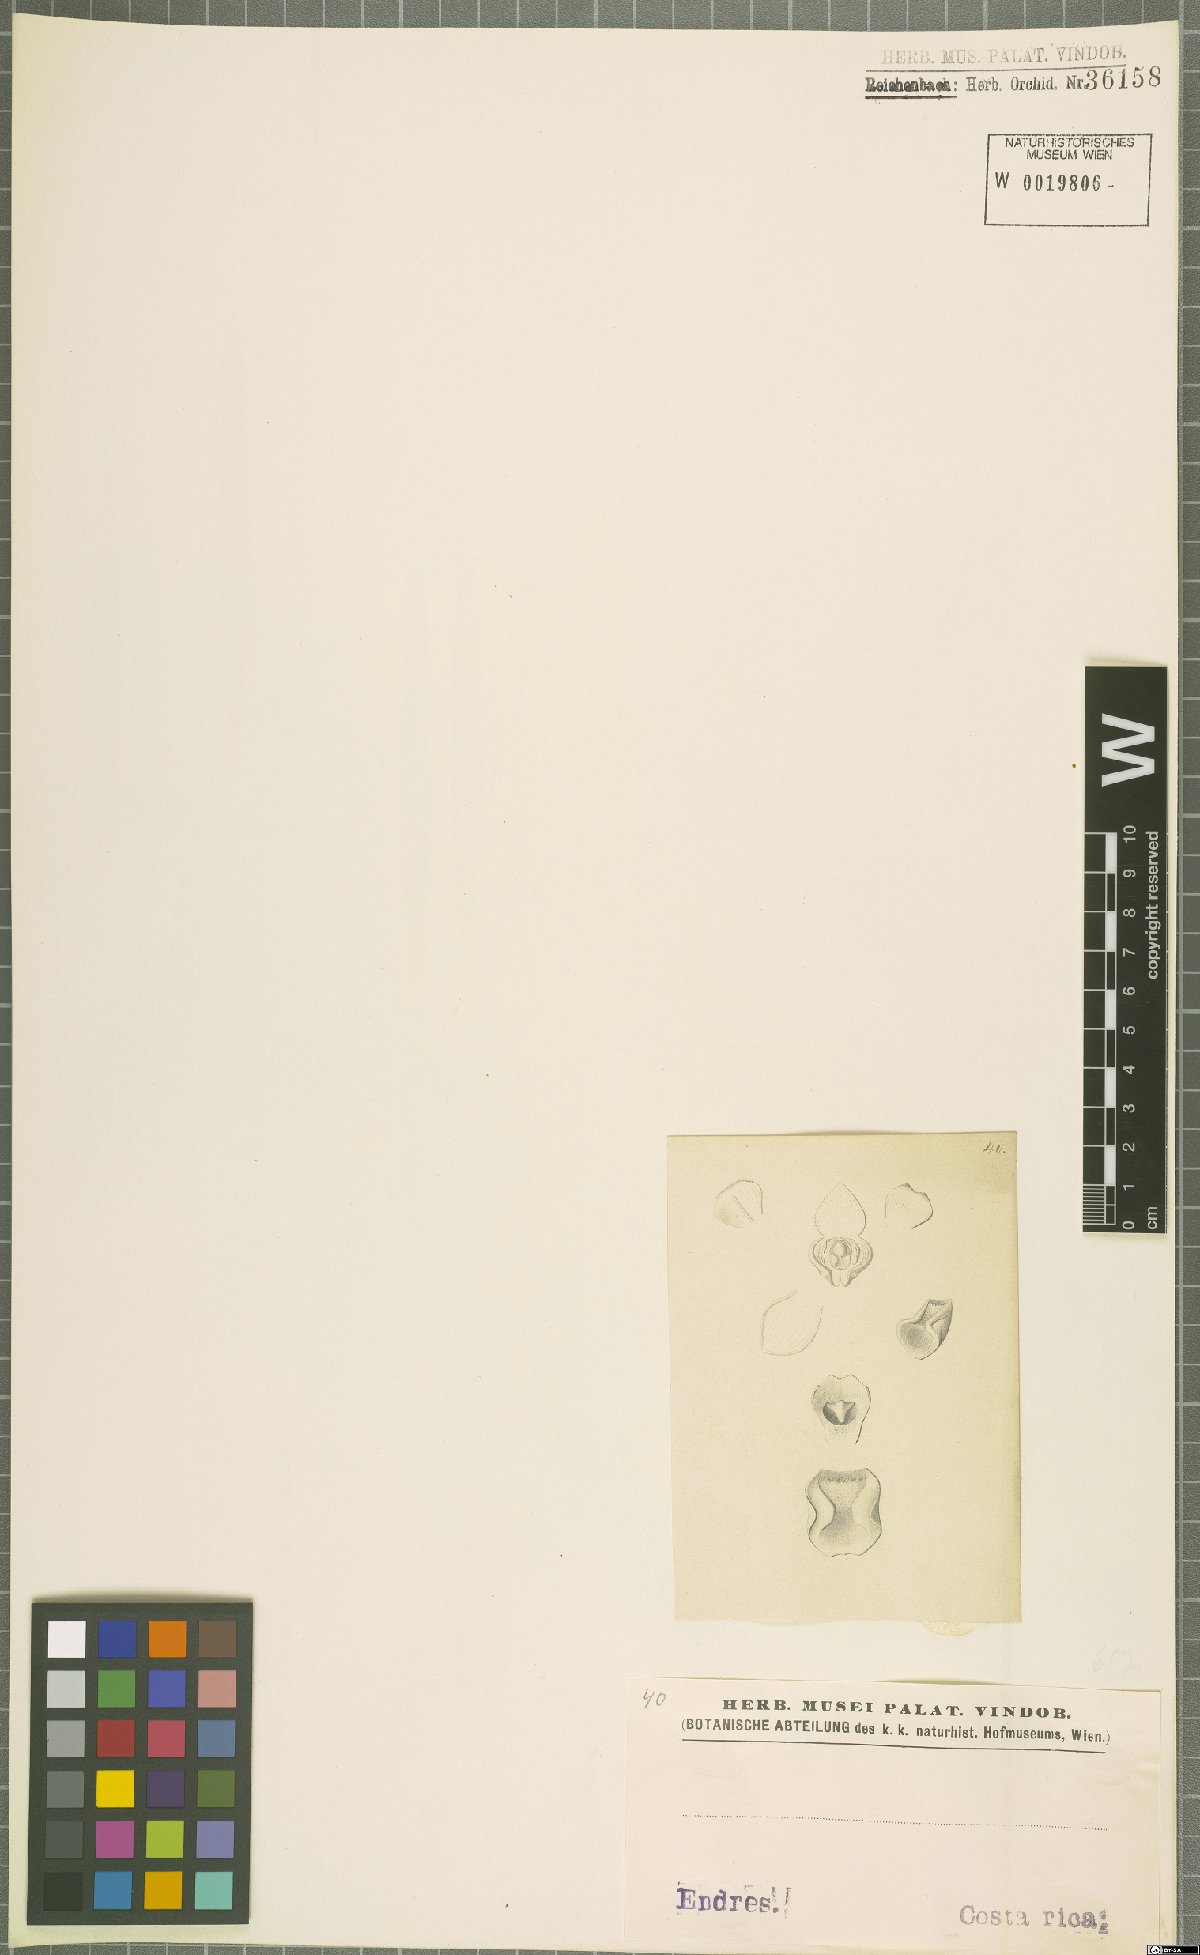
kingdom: Plantae
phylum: Tracheophyta
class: Liliopsida
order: Asparagales
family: Orchidaceae
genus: Stelis
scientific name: Stelis
